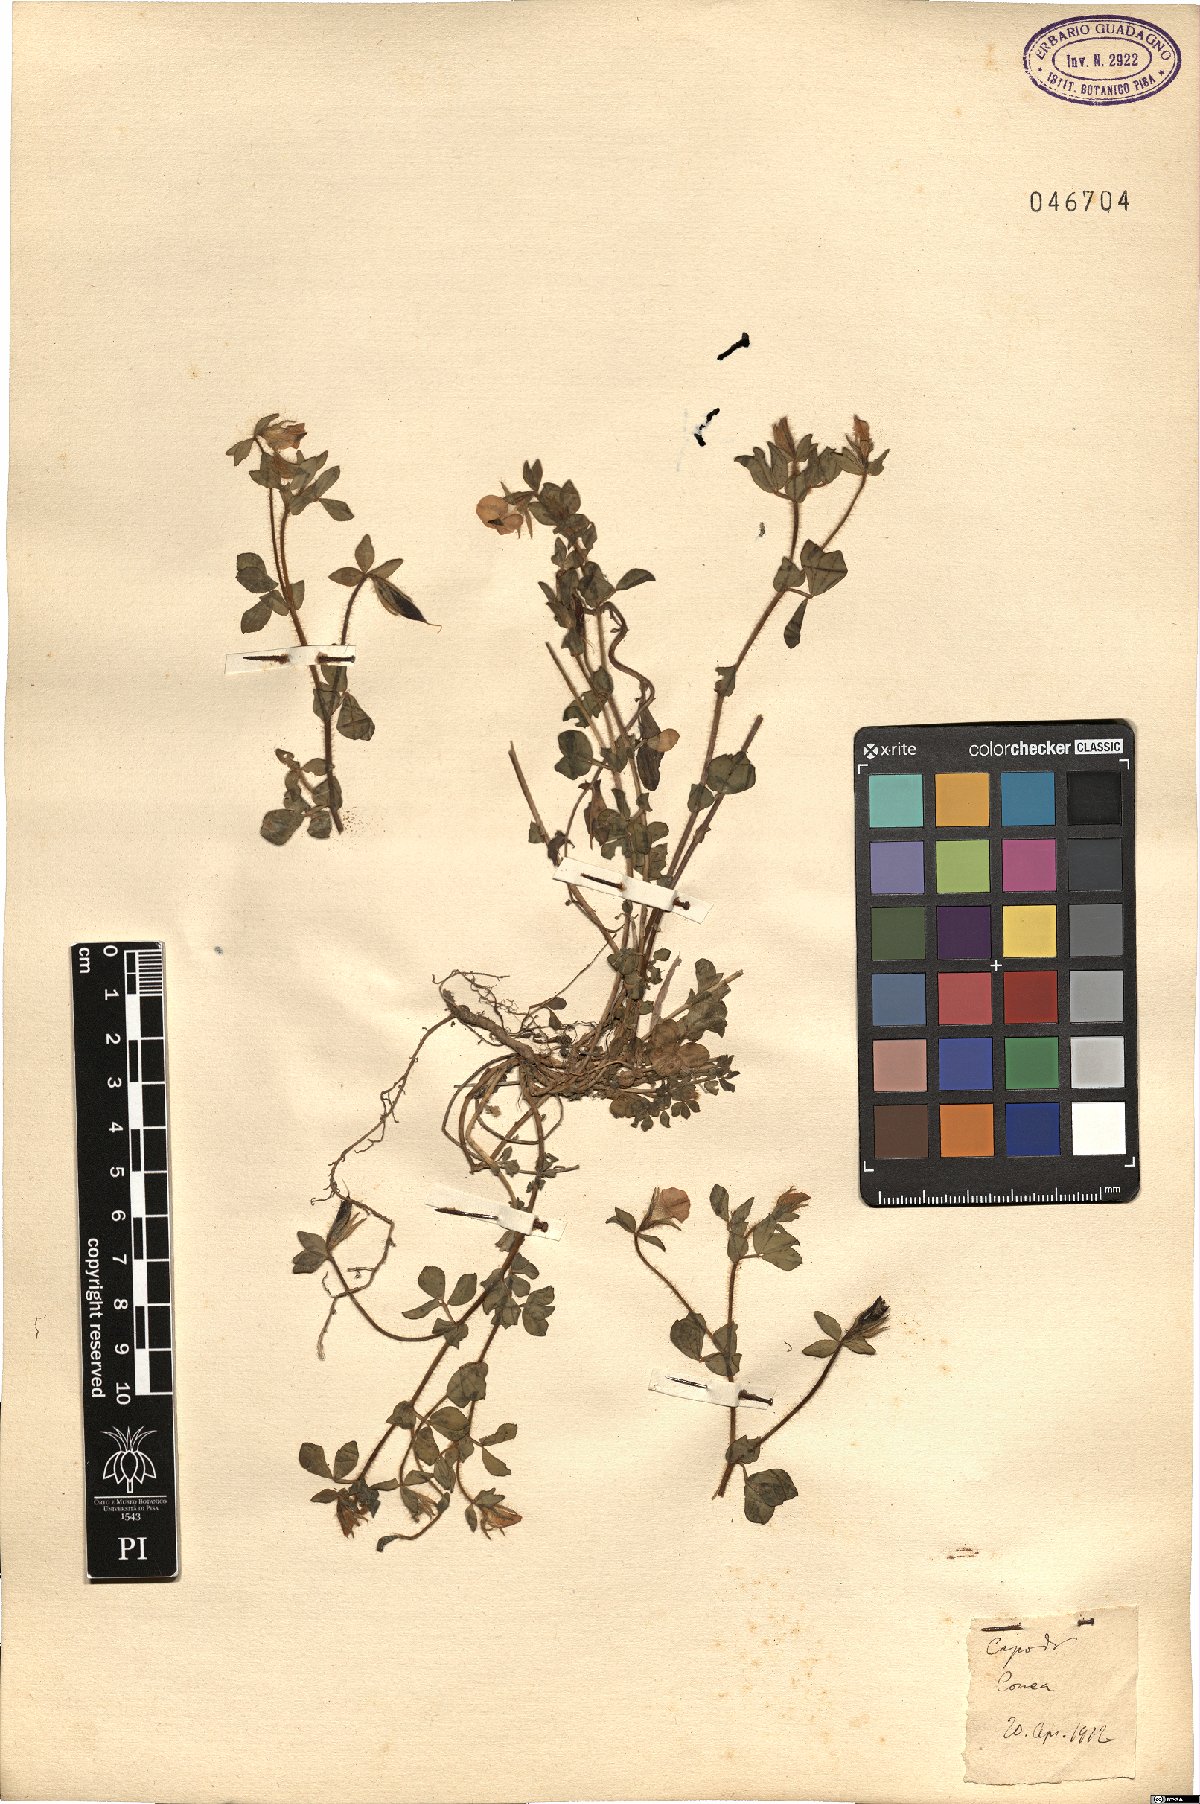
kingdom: Plantae
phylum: Tracheophyta
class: Magnoliopsida
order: Fabales
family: Fabaceae
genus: Lotus
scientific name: Lotus
